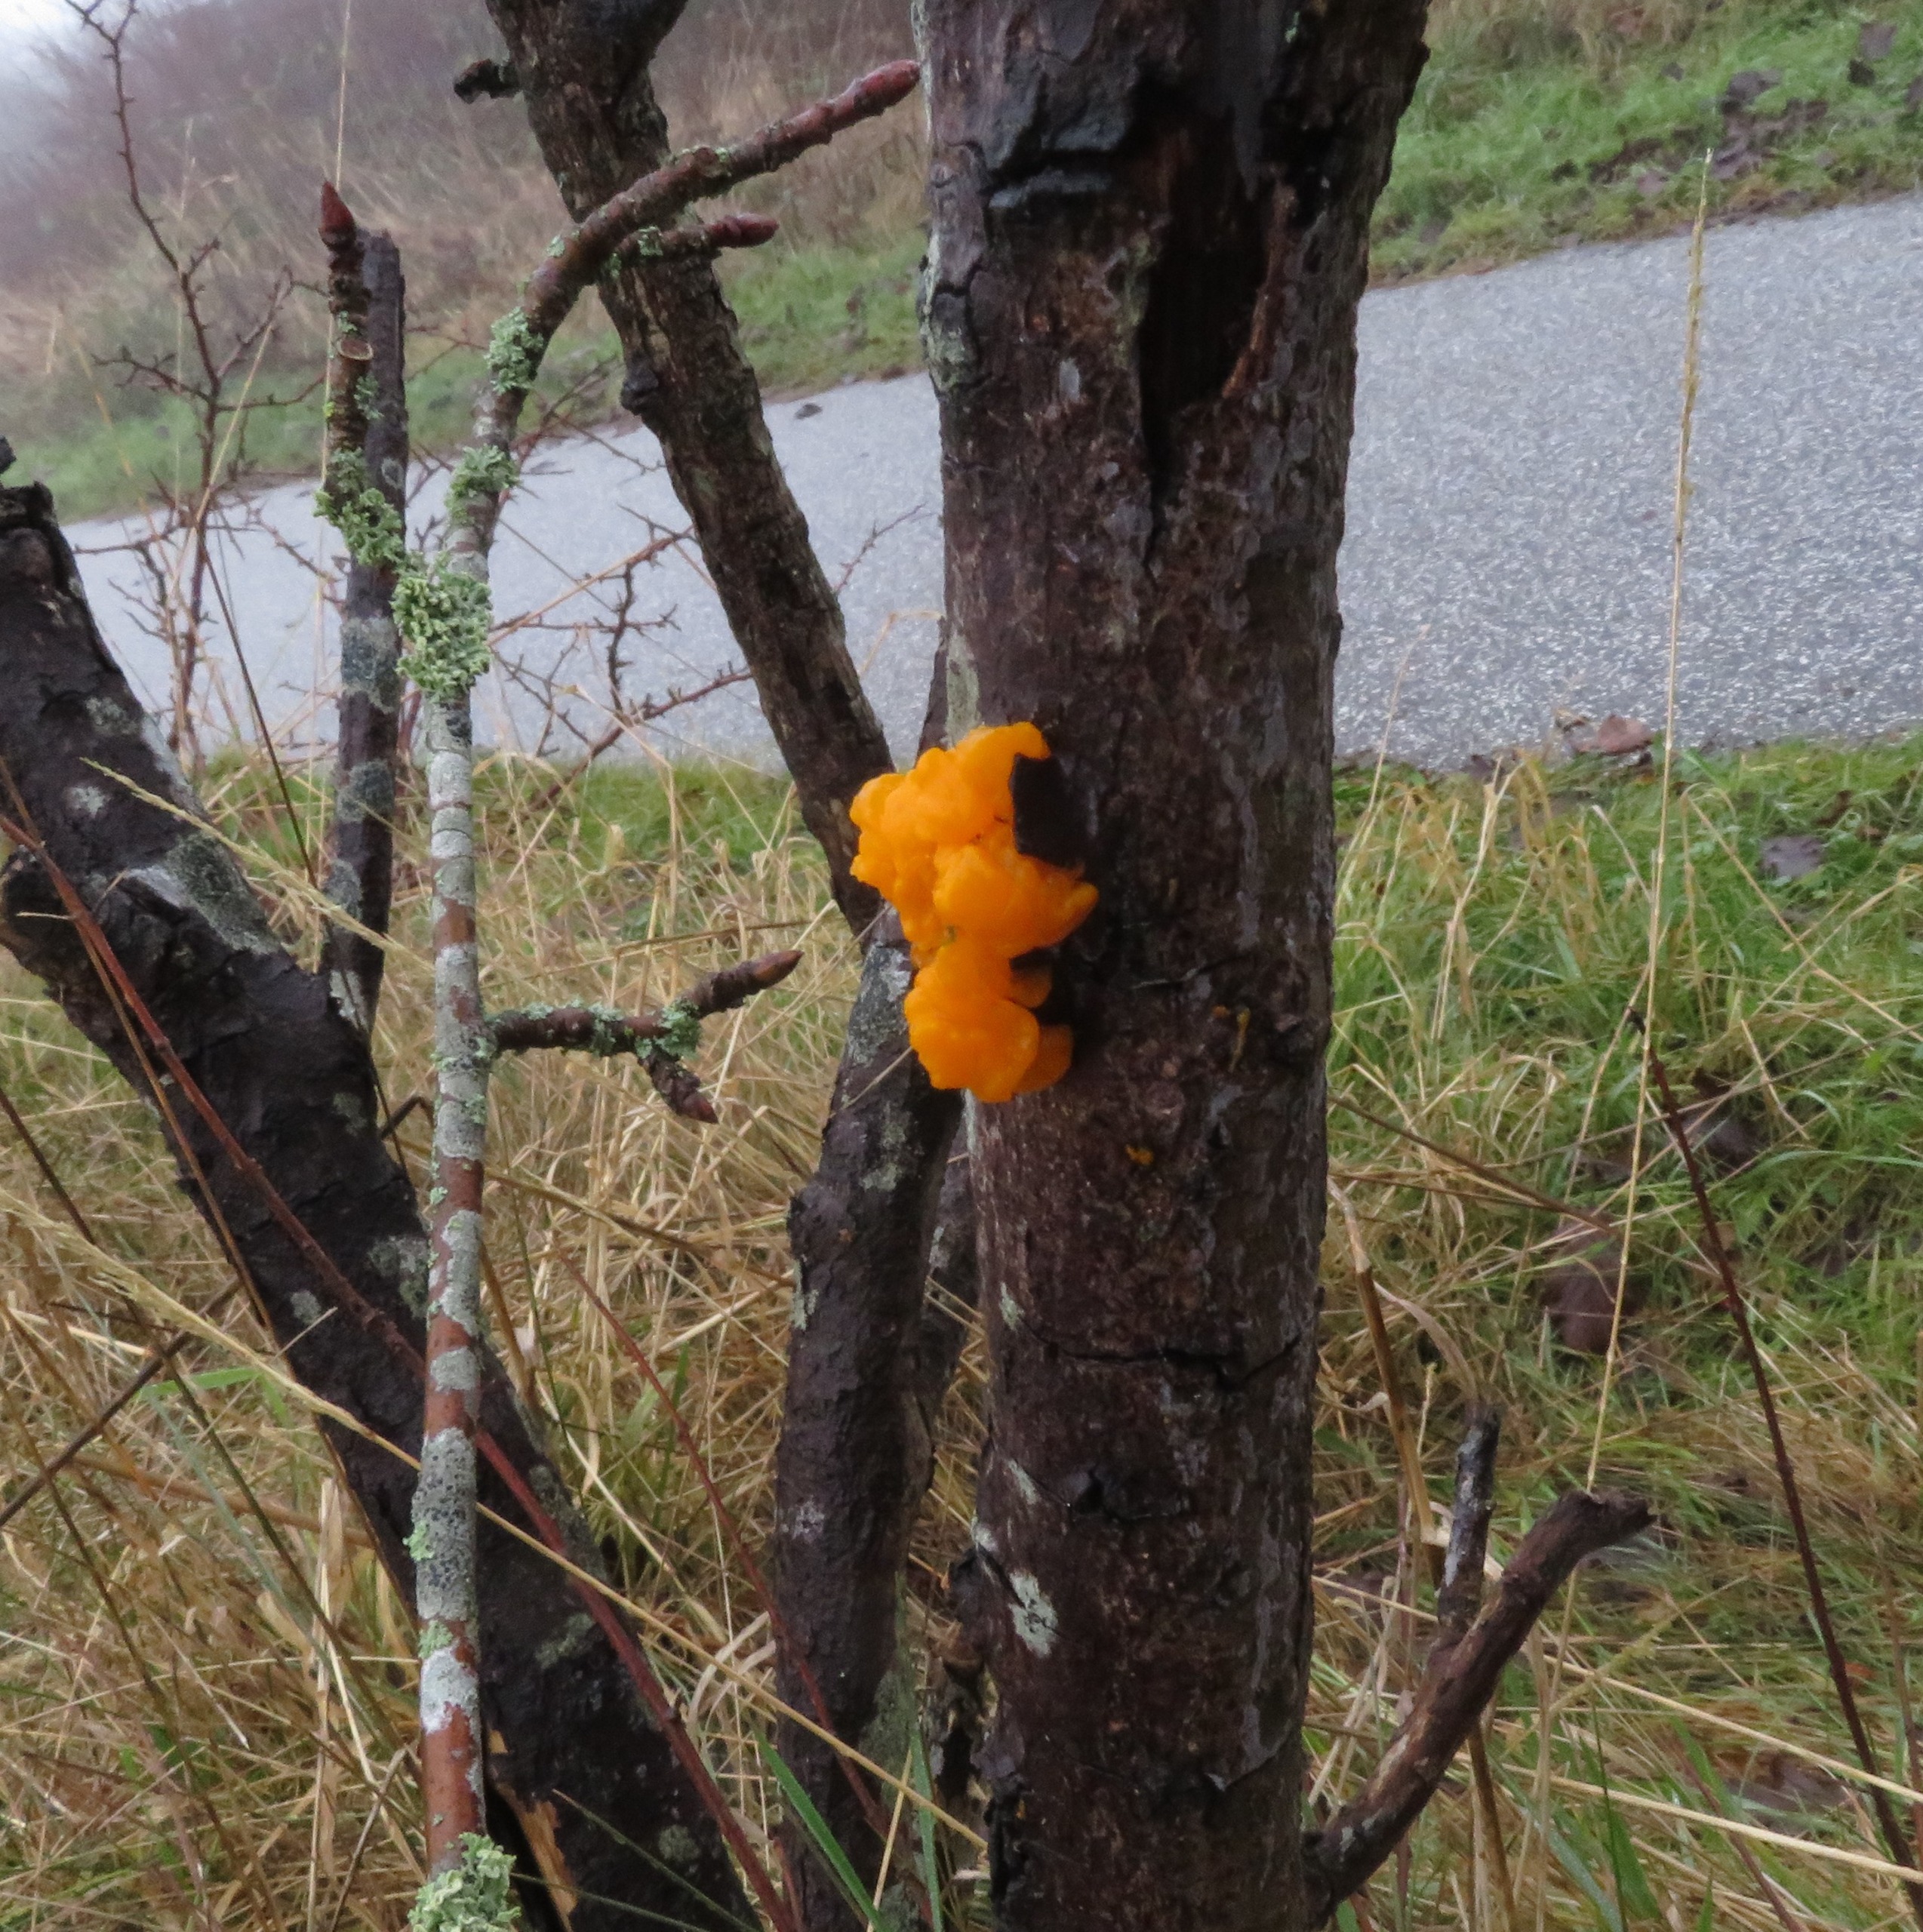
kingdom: Fungi
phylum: Basidiomycota
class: Tremellomycetes
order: Tremellales
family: Tremellaceae
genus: Tremella
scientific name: Tremella mesenterica
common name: Gul bævresvamp
